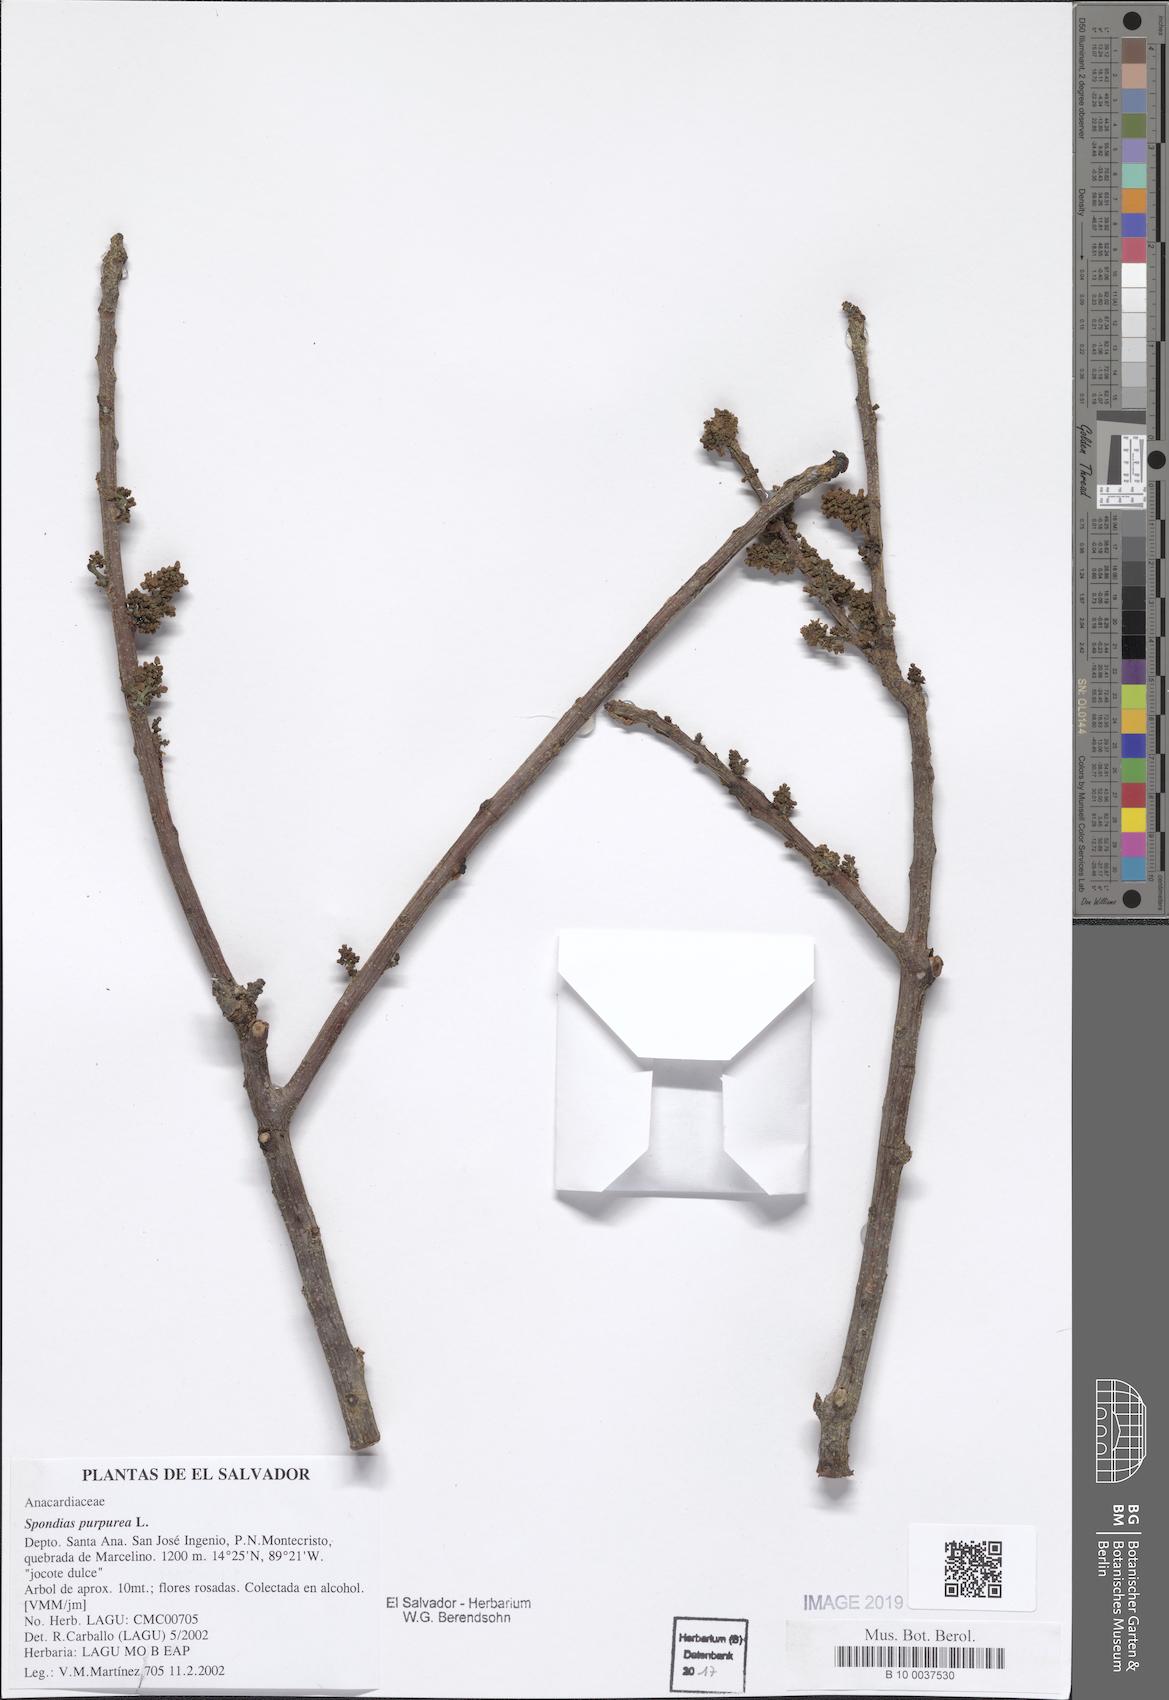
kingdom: Plantae
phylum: Tracheophyta
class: Magnoliopsida
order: Sapindales
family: Anacardiaceae
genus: Spondias
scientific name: Spondias purpurea
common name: Purple mombin
